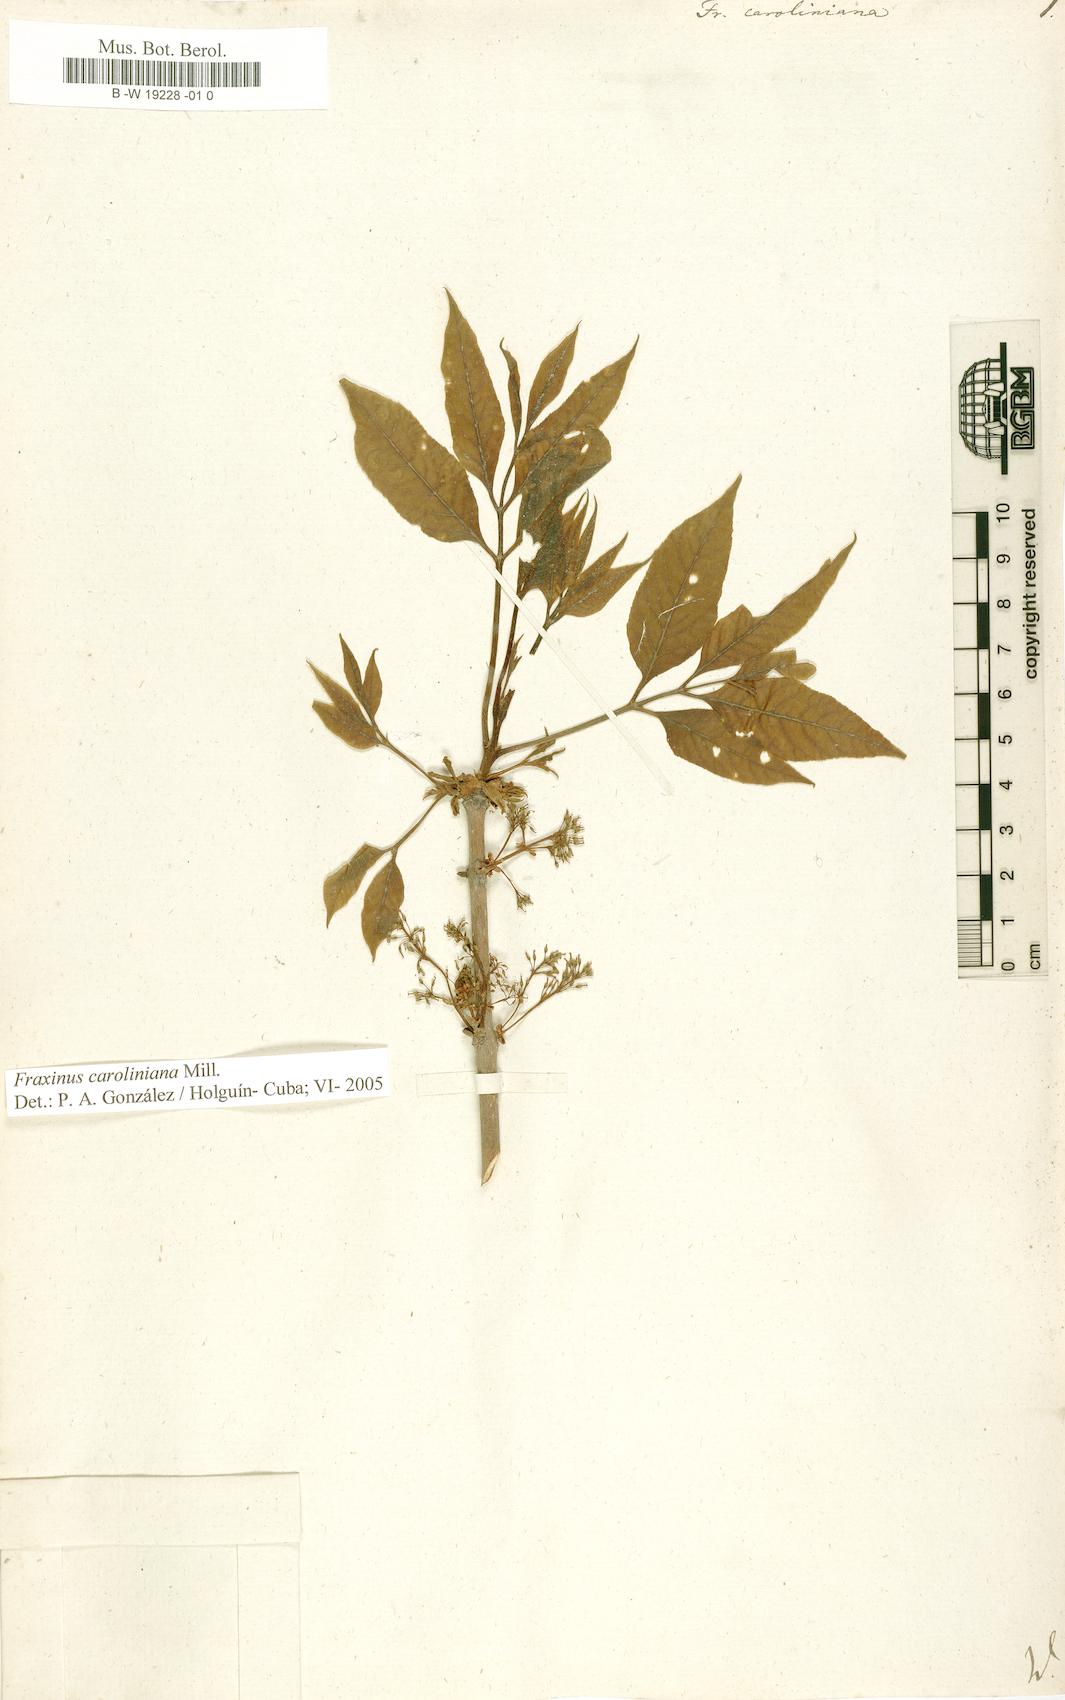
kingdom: Plantae
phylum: Tracheophyta
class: Magnoliopsida
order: Lamiales
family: Oleaceae
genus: Fraxinus
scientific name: Fraxinus caroliniana
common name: Carolina ash
